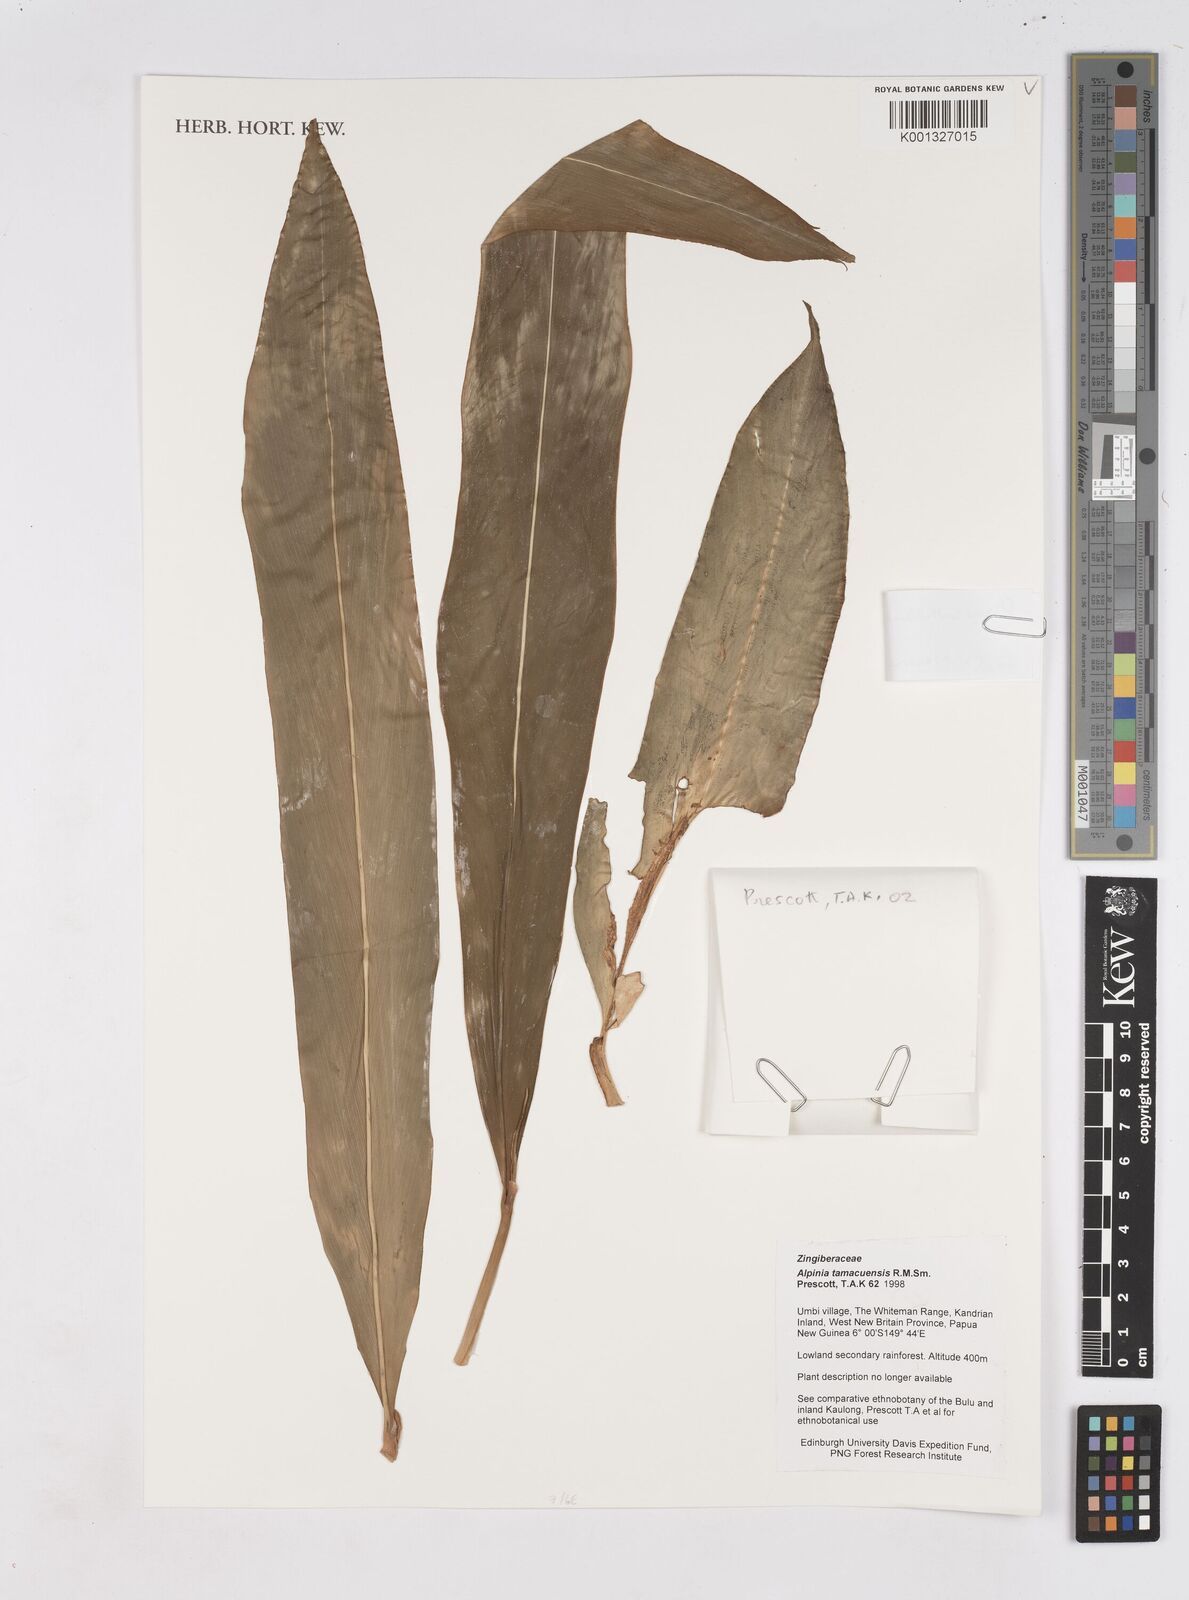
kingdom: Plantae
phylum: Tracheophyta
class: Liliopsida
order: Zingiberales
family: Zingiberaceae
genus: Pleuranthodium
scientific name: Pleuranthodium
